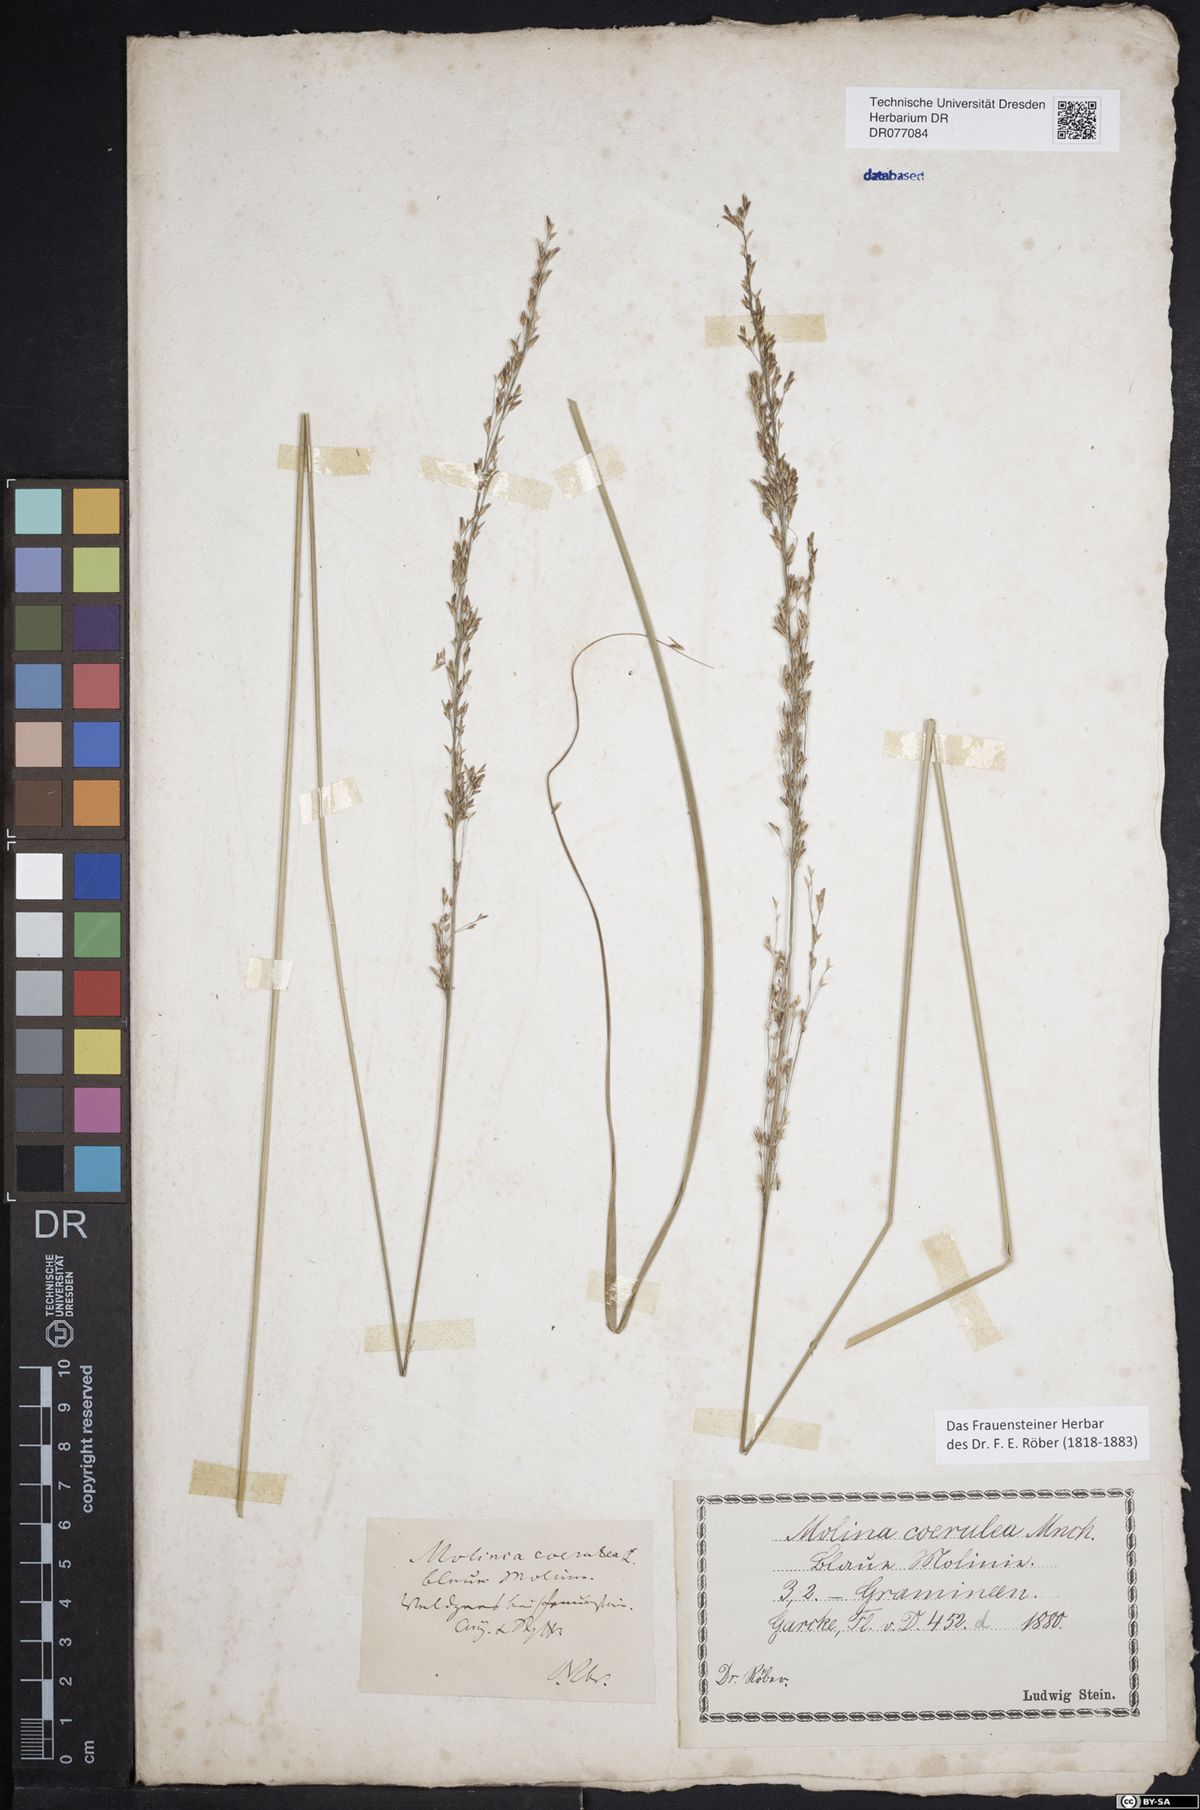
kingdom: Plantae
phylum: Tracheophyta
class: Liliopsida
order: Poales
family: Poaceae
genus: Molinia
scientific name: Molinia caerulea
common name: Purple moor-grass
